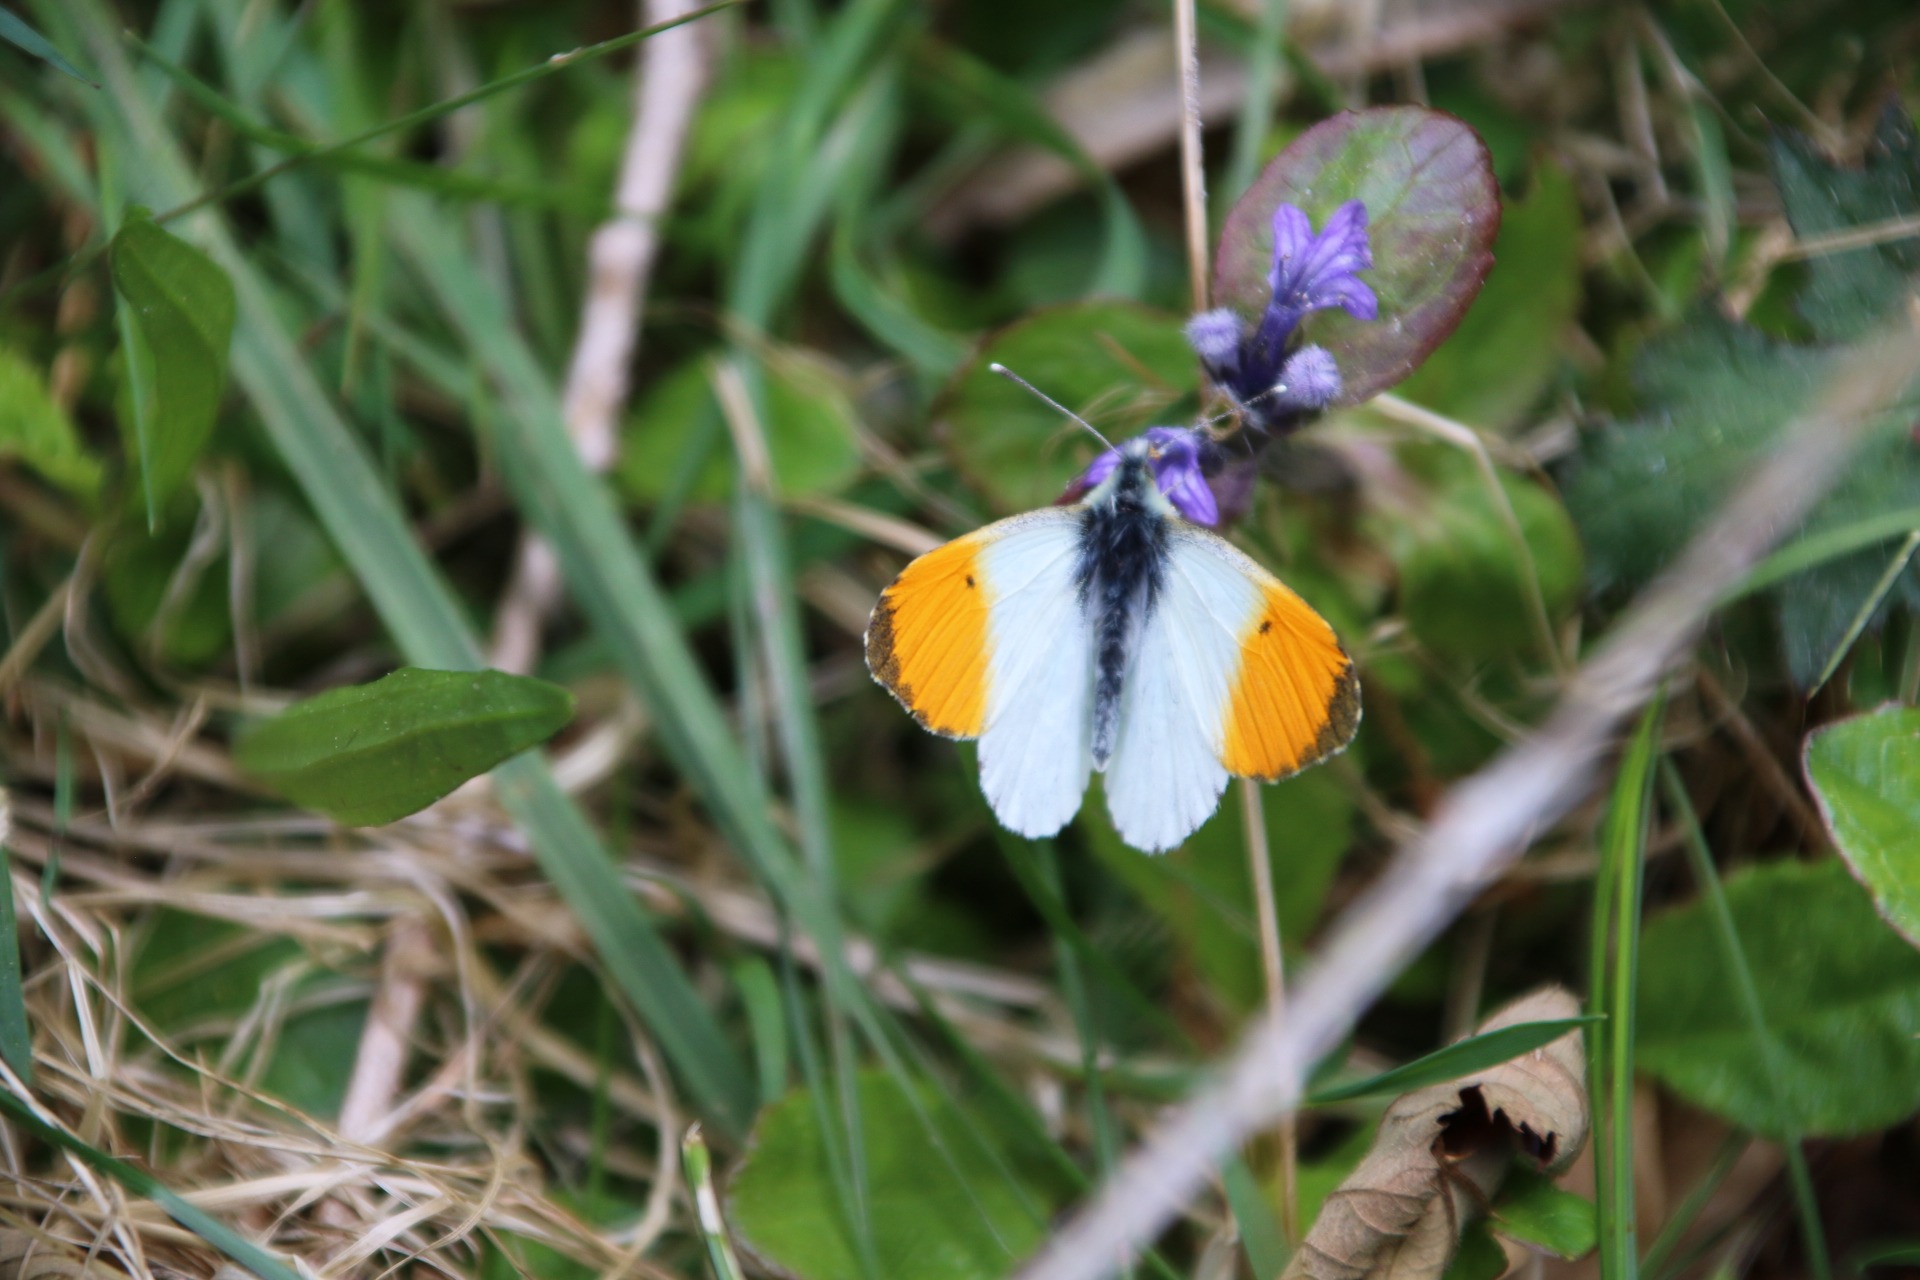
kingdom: Animalia
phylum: Arthropoda
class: Insecta
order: Lepidoptera
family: Pieridae
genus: Anthocharis
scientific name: Anthocharis cardamines
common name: Aurora
